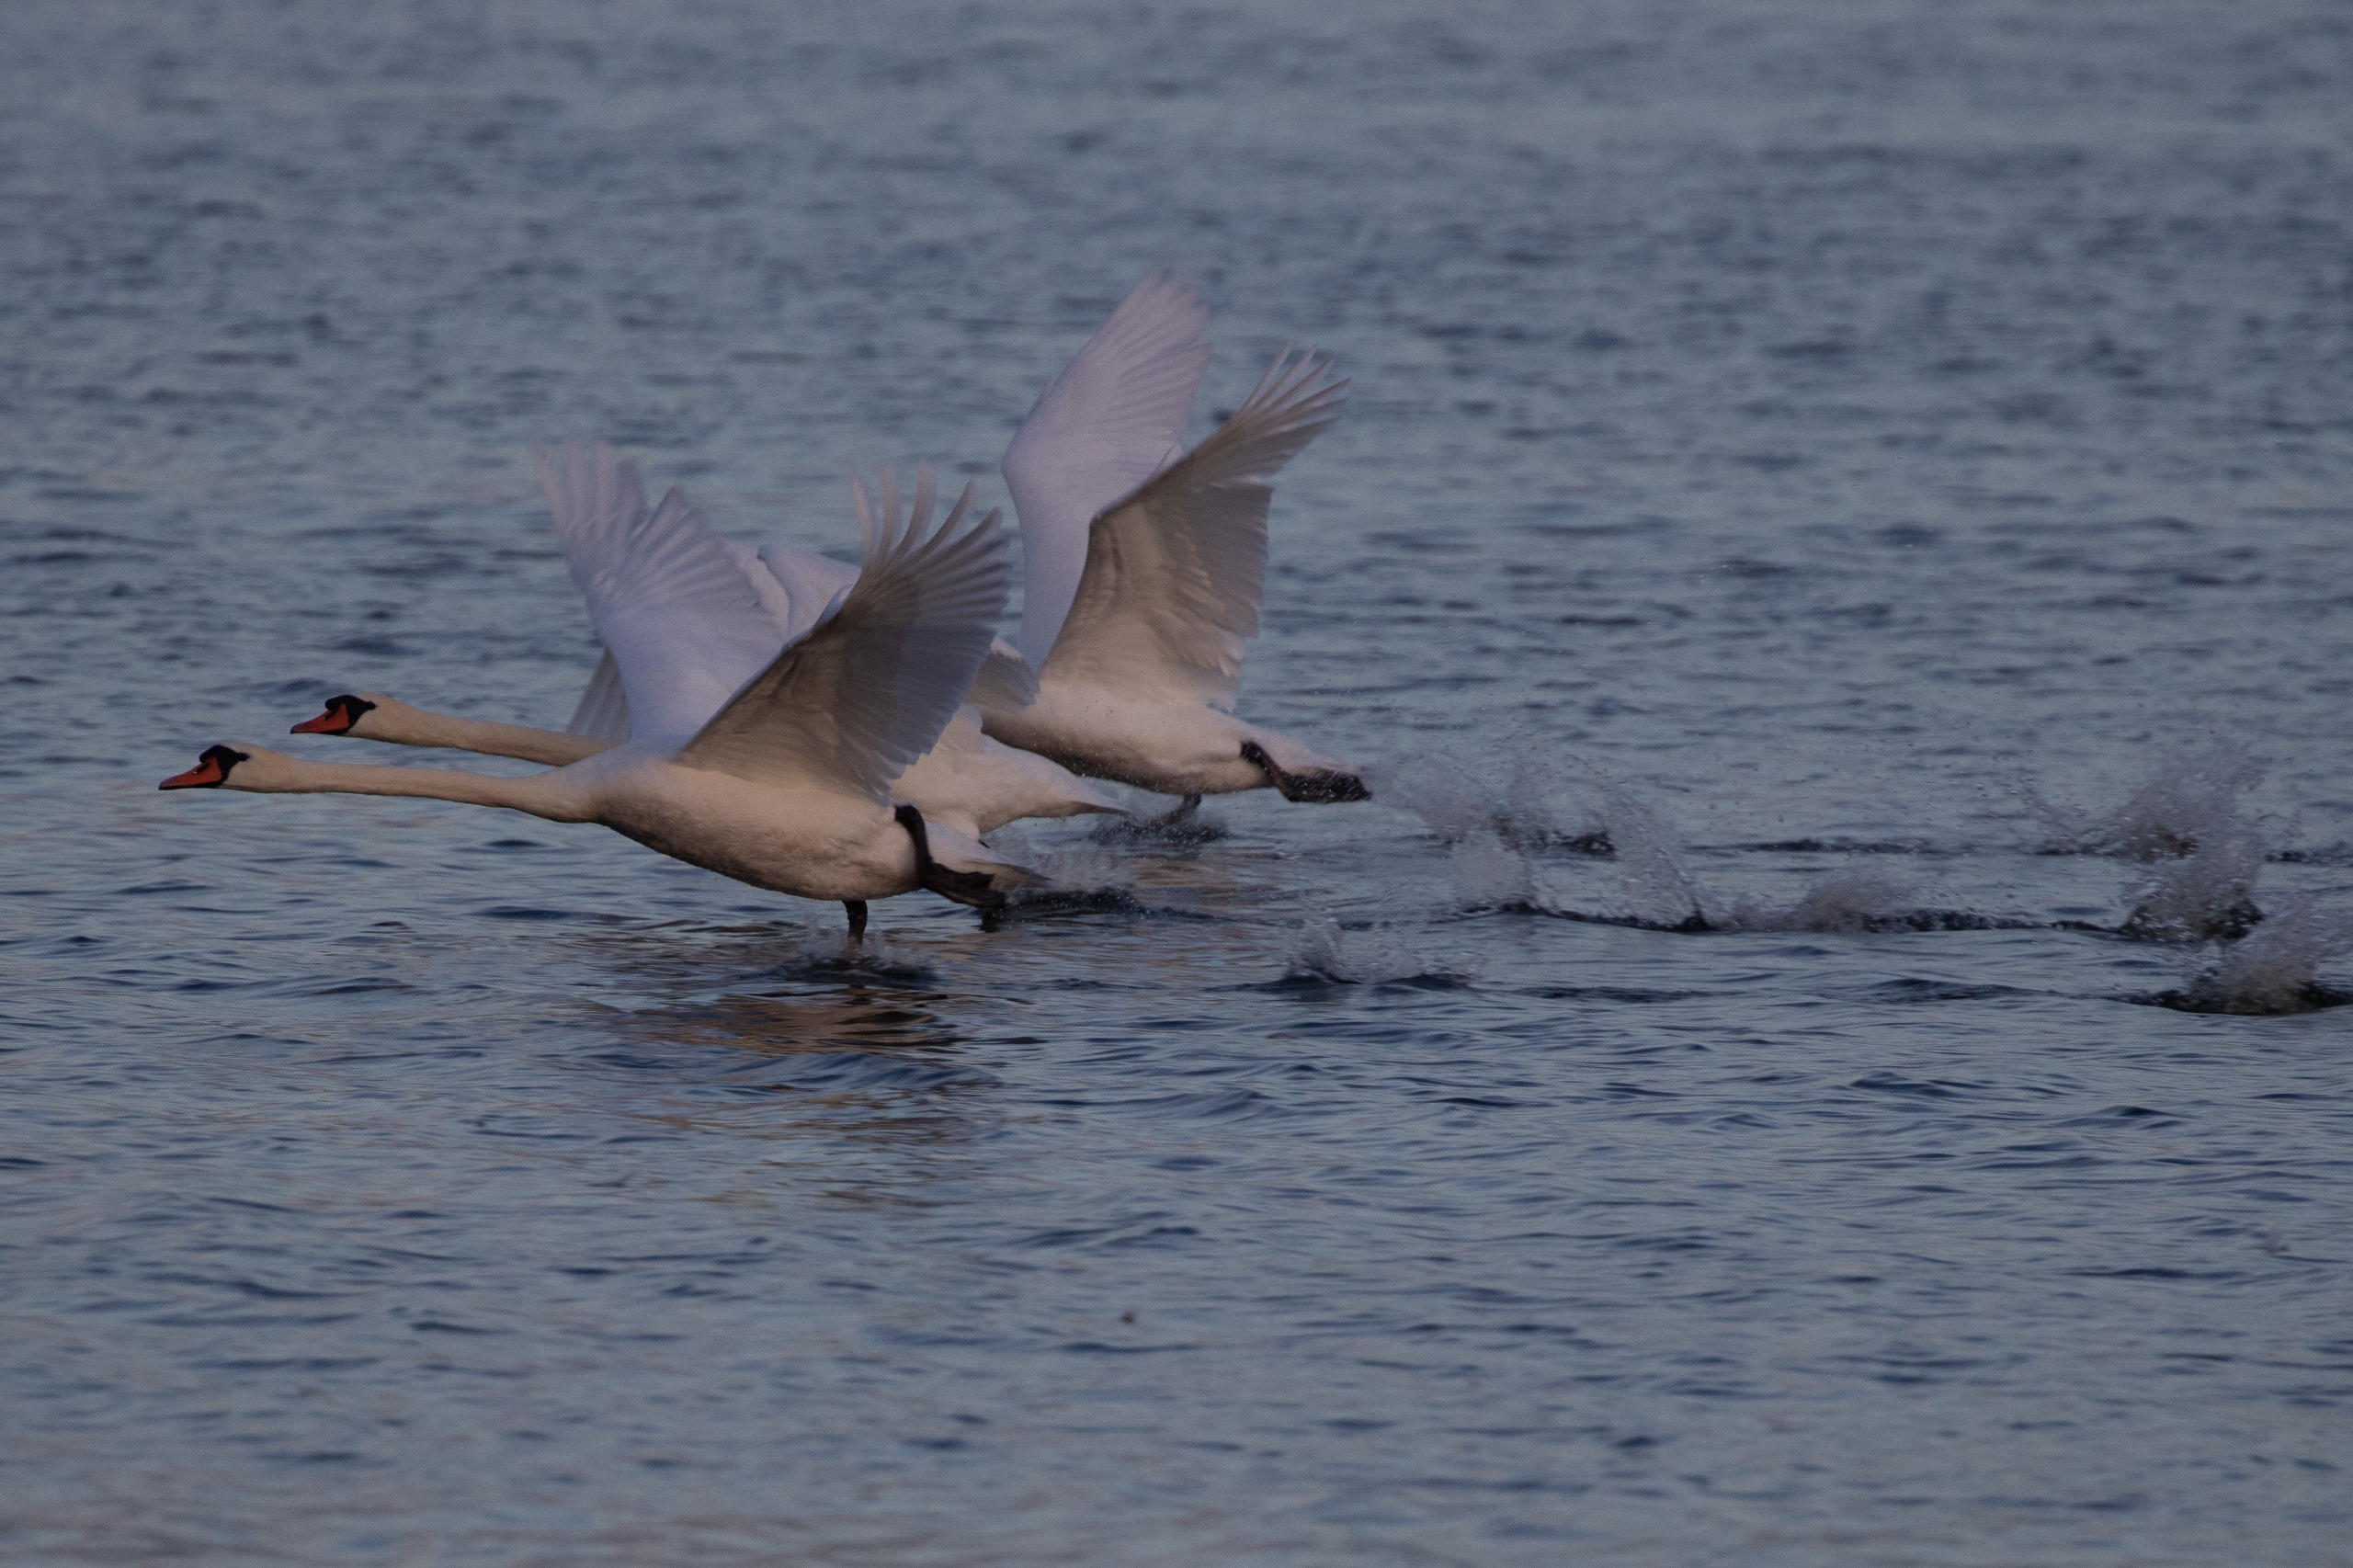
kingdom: Animalia
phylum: Chordata
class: Aves
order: Anseriformes
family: Anatidae
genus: Cygnus
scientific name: Cygnus olor
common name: Knopsvane
